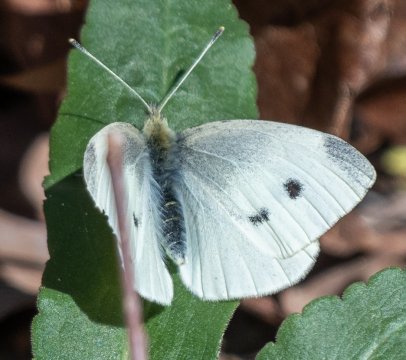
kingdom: Animalia
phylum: Arthropoda
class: Insecta
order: Lepidoptera
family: Pieridae
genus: Pieris
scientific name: Pieris rapae
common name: Cabbage White
